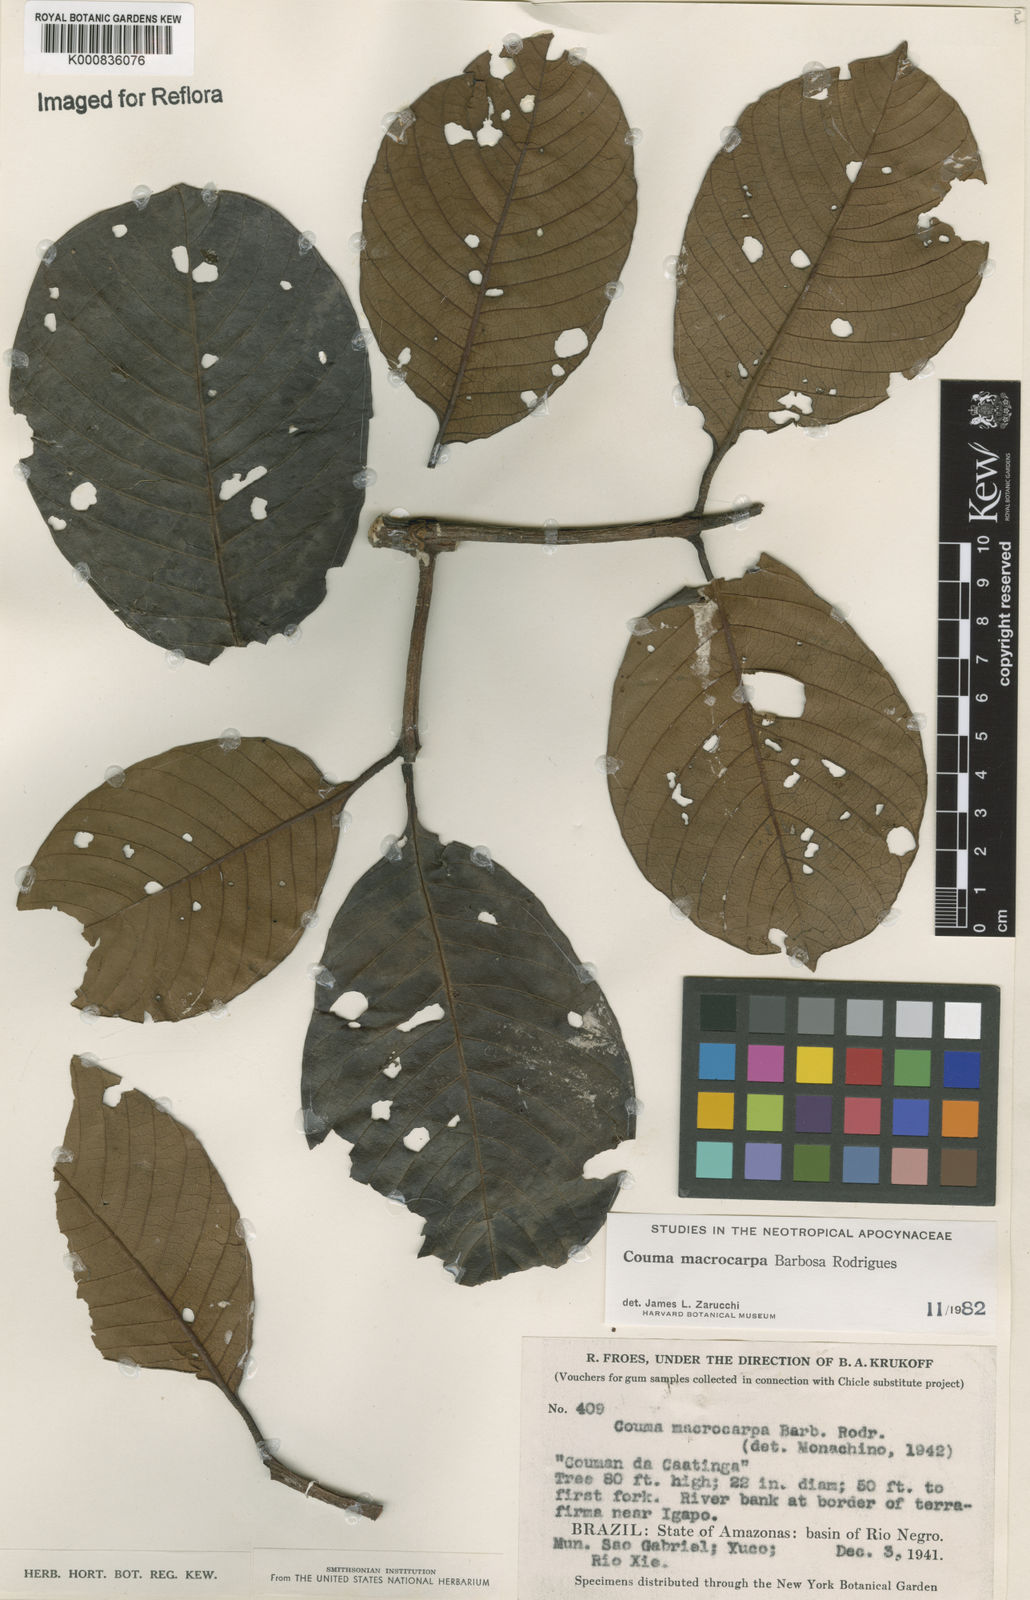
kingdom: Plantae
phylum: Tracheophyta
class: Magnoliopsida
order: Gentianales
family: Apocynaceae
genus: Couma
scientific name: Couma macrocarpa
